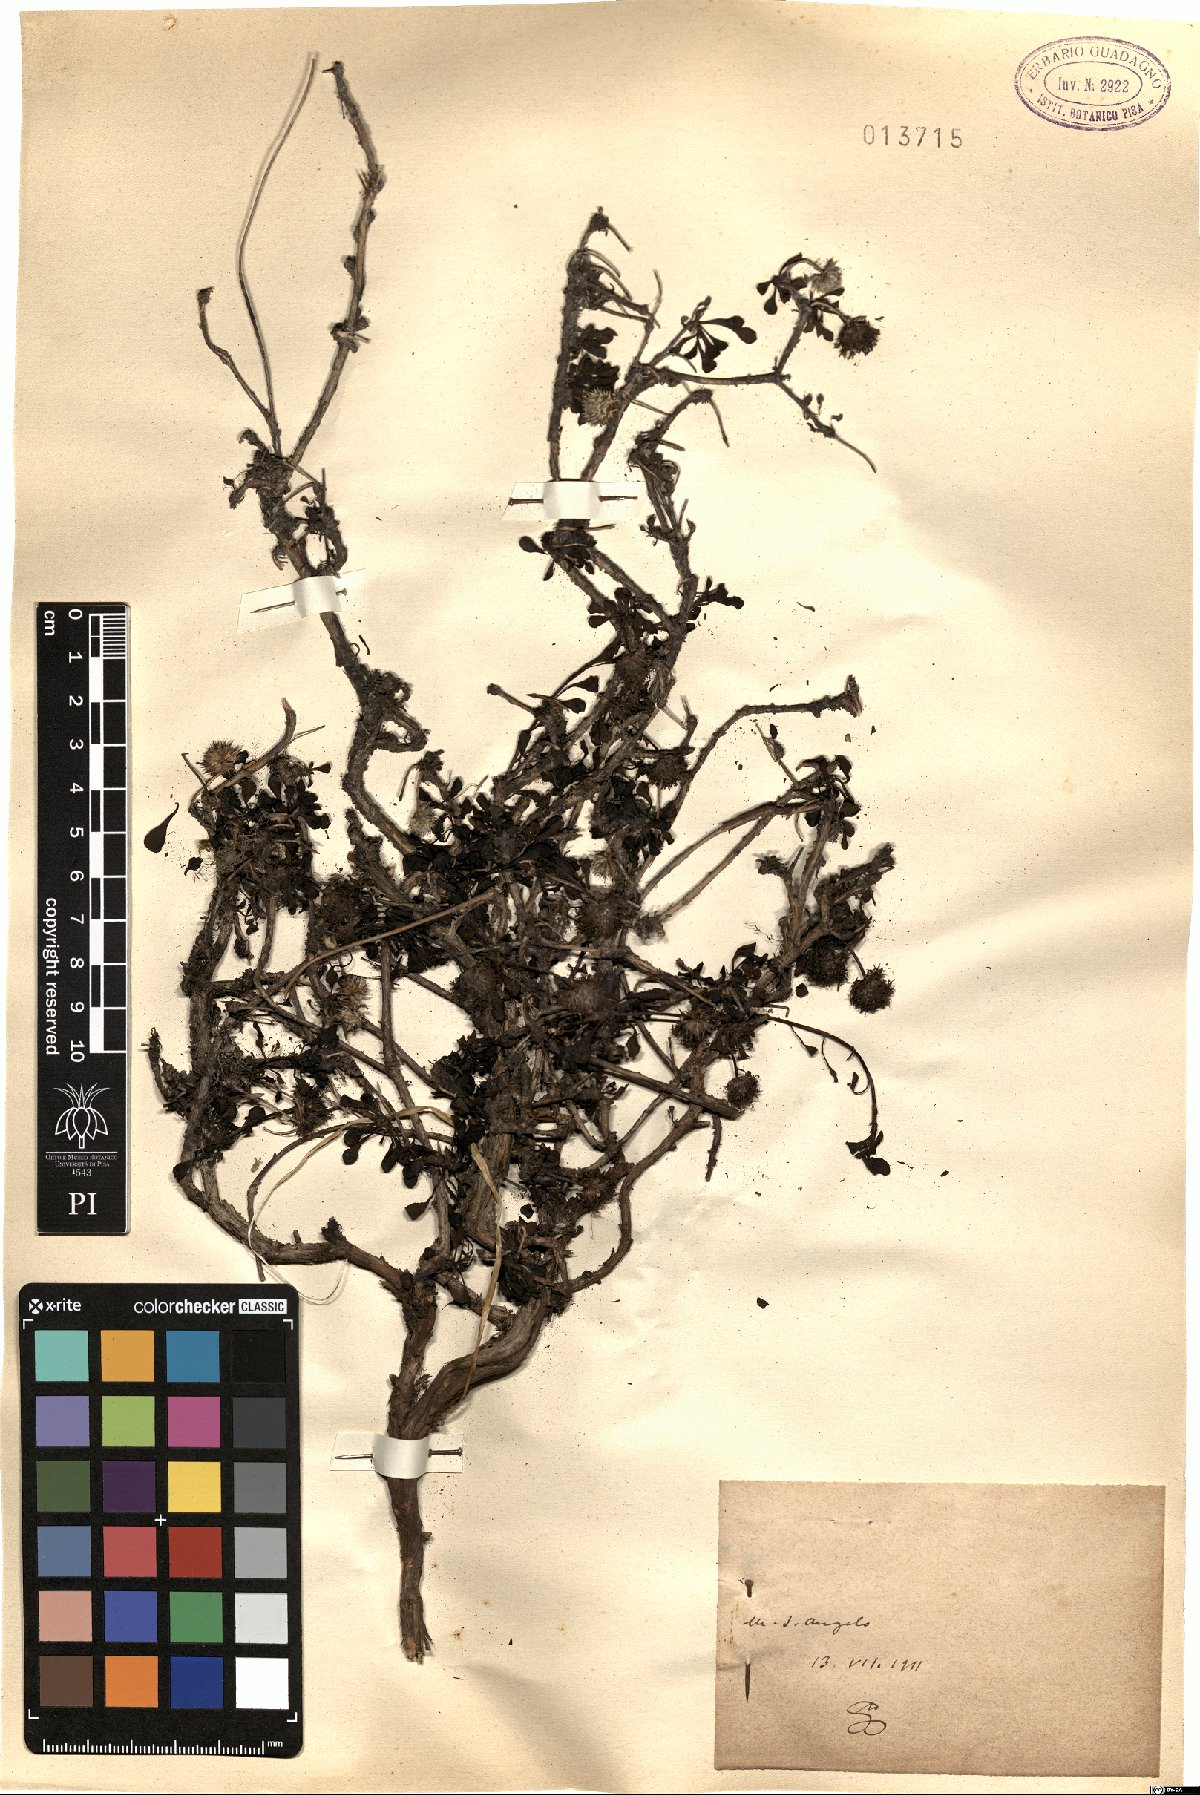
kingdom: Plantae
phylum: Tracheophyta
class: Magnoliopsida
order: Lamiales
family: Plantaginaceae
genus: Globularia
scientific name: Globularia
